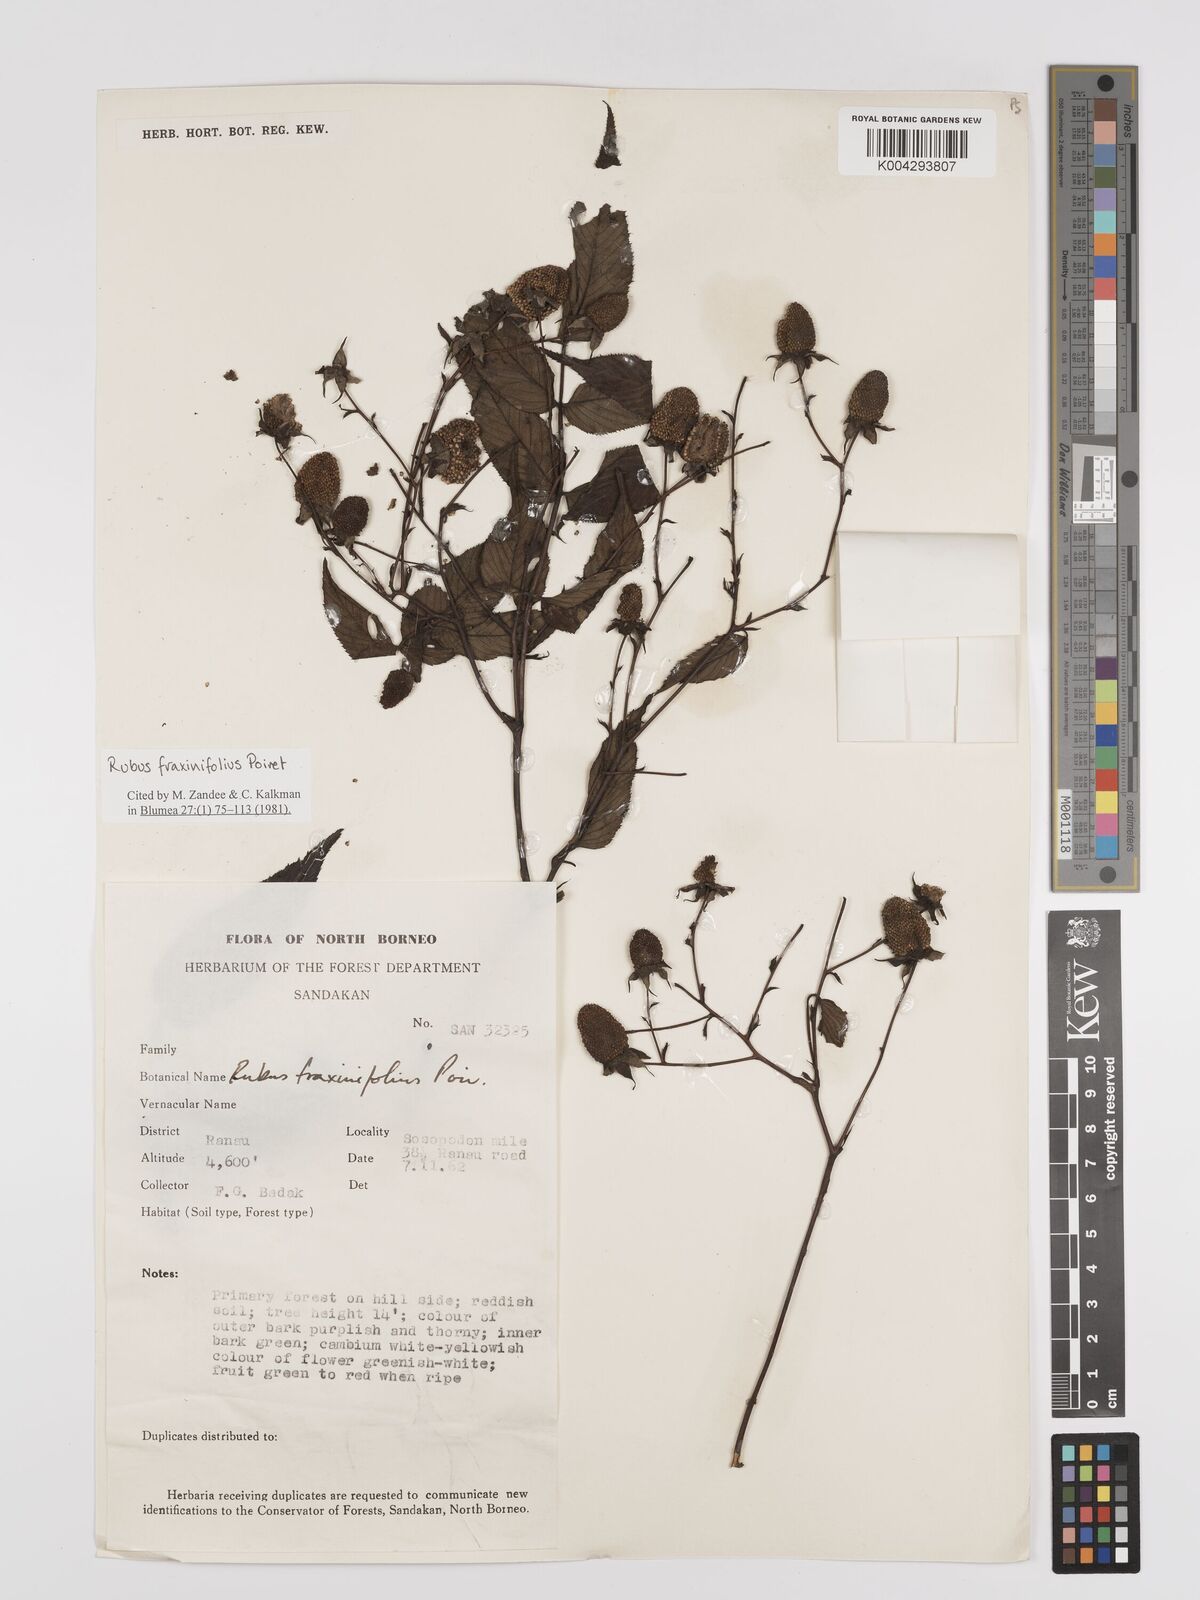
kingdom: Plantae
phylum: Tracheophyta
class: Magnoliopsida
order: Rosales
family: Rosaceae
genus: Rubus
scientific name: Rubus fraxinifolius
